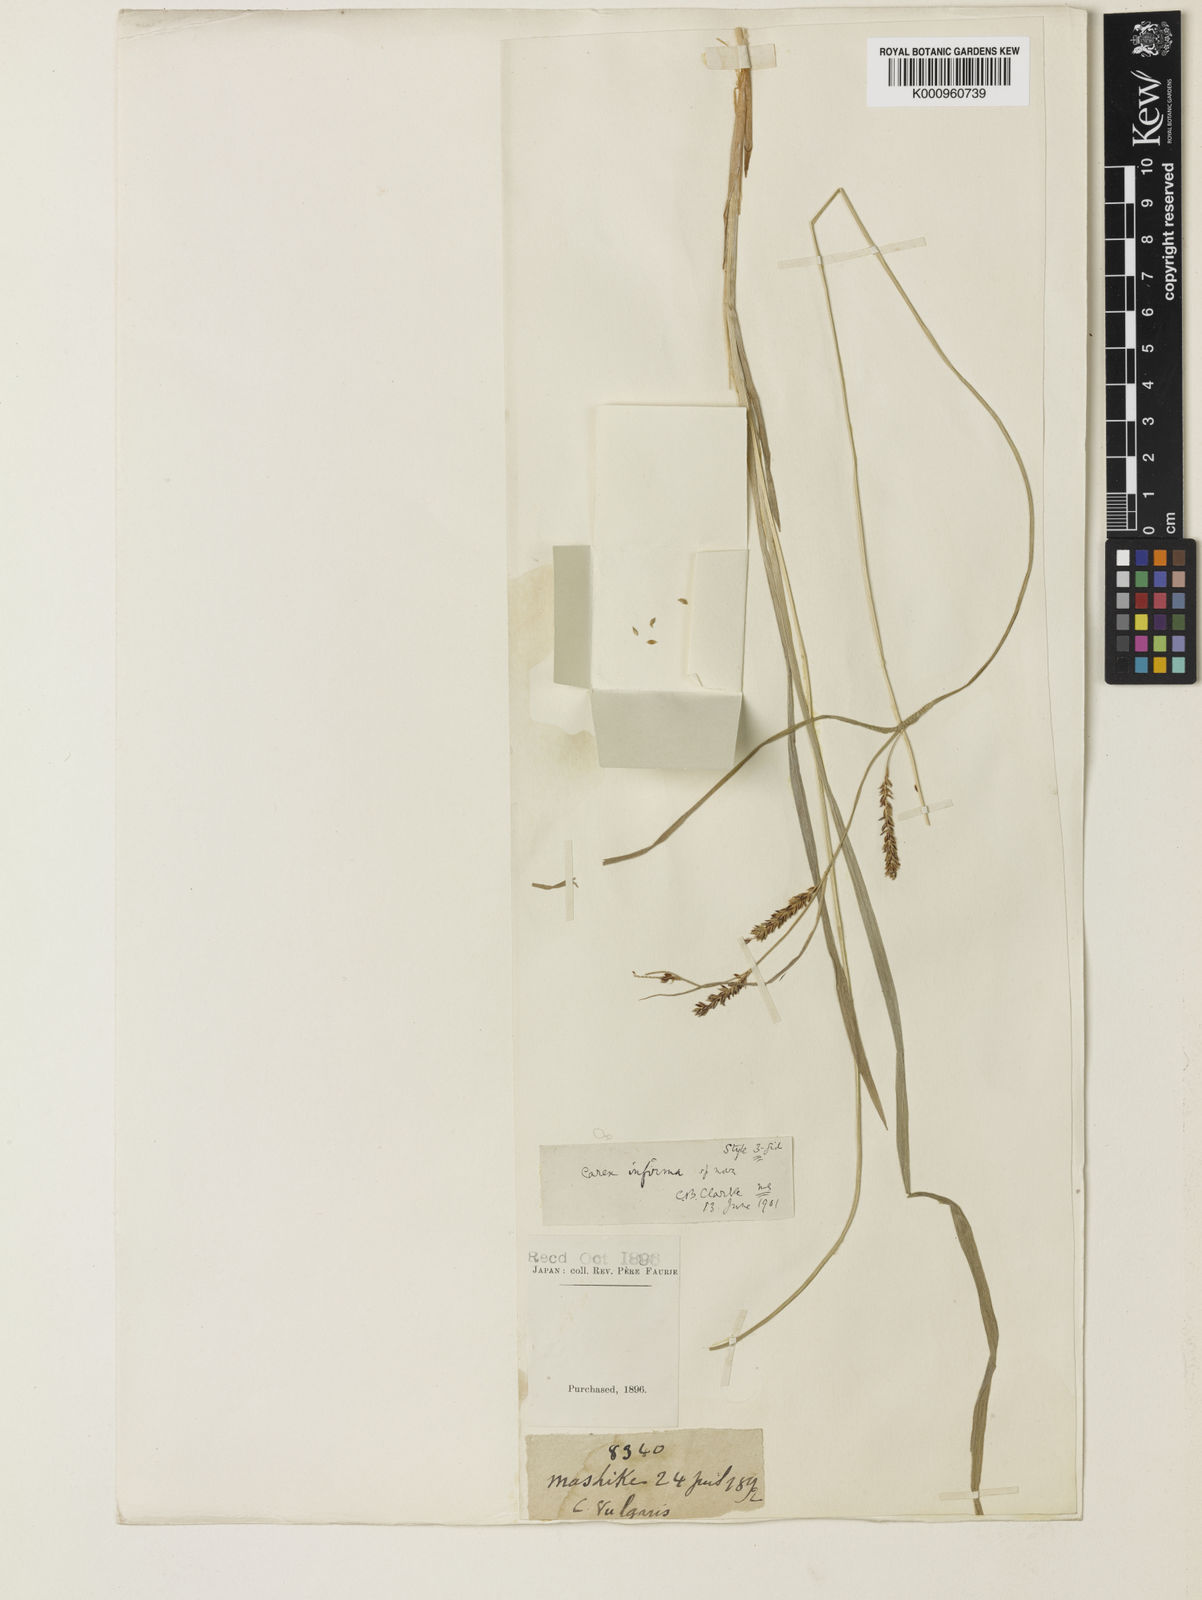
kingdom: Plantae
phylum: Tracheophyta
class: Liliopsida
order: Poales
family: Cyperaceae
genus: Carex
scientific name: Carex augustinowiczii
